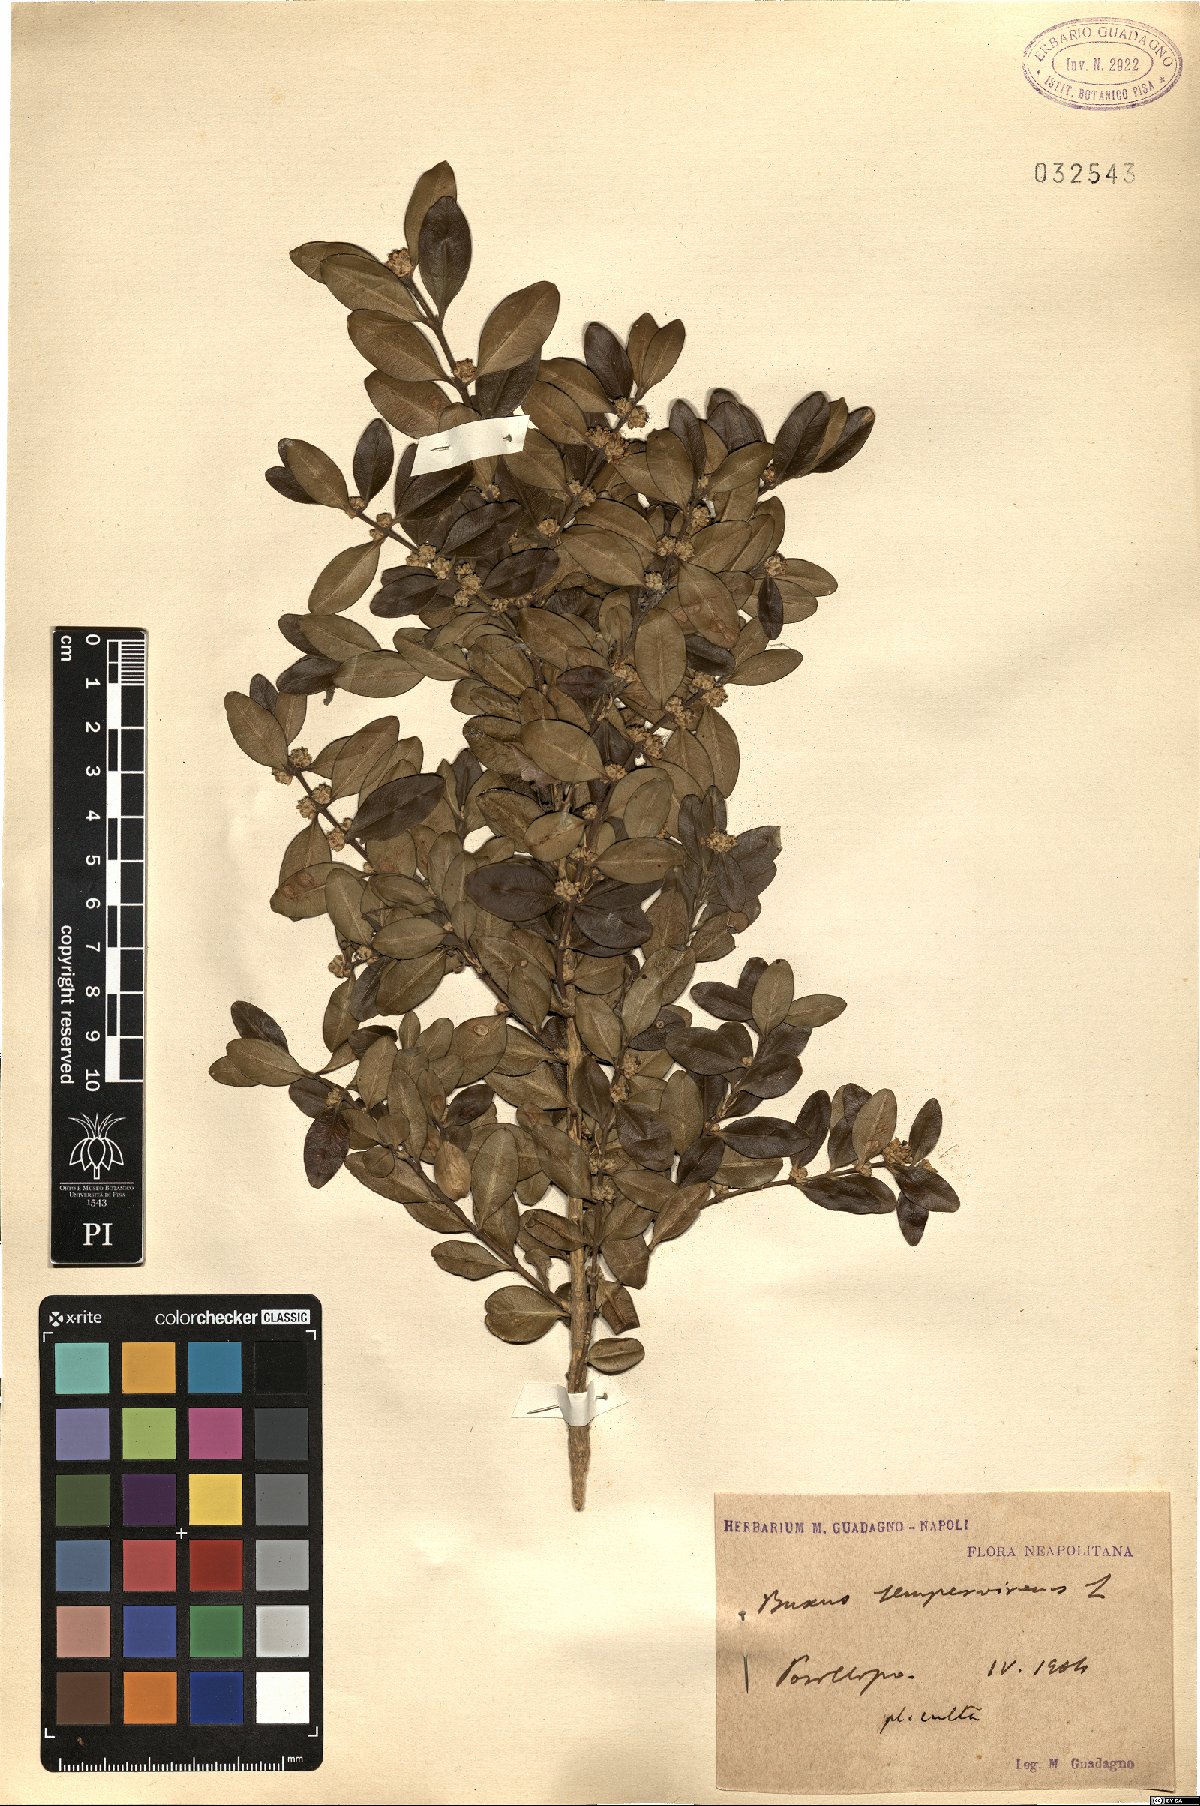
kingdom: Plantae
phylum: Tracheophyta
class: Magnoliopsida
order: Buxales
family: Buxaceae
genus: Buxus
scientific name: Buxus sempervirens
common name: Box
